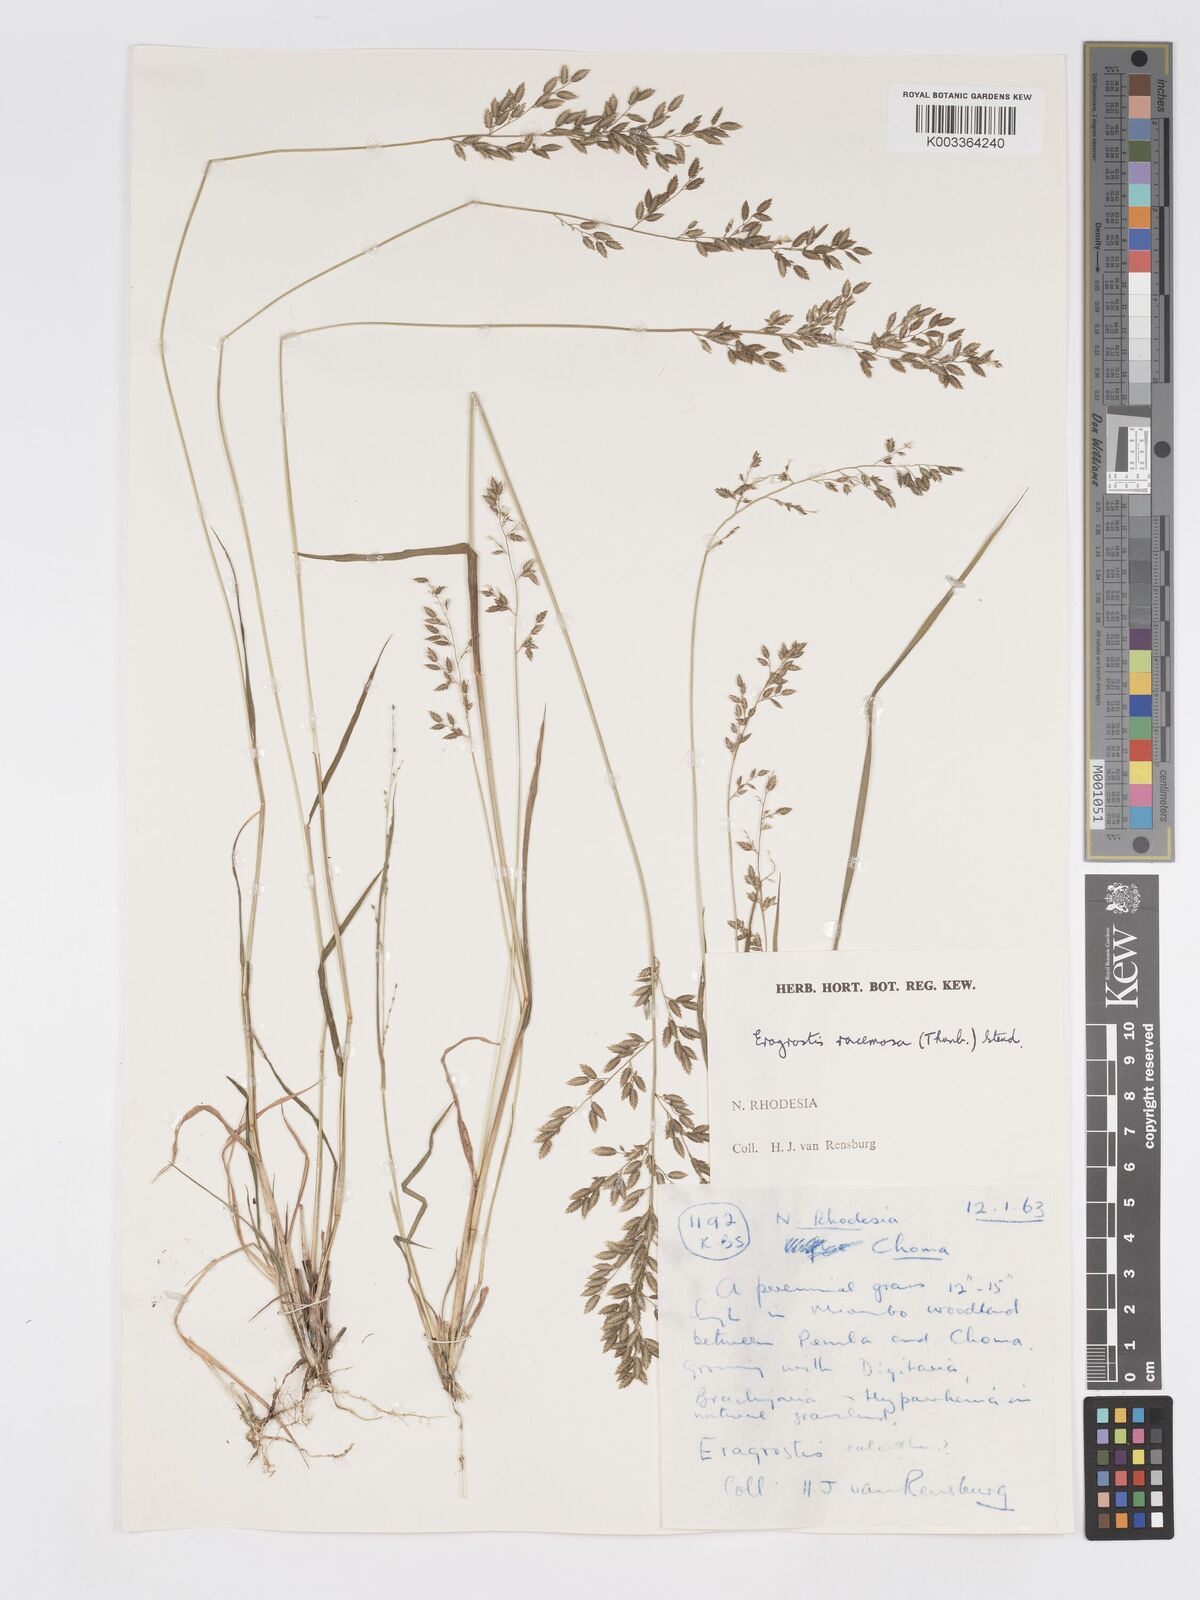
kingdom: Plantae
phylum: Tracheophyta
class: Liliopsida
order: Poales
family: Poaceae
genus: Eragrostis
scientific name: Eragrostis racemosa
